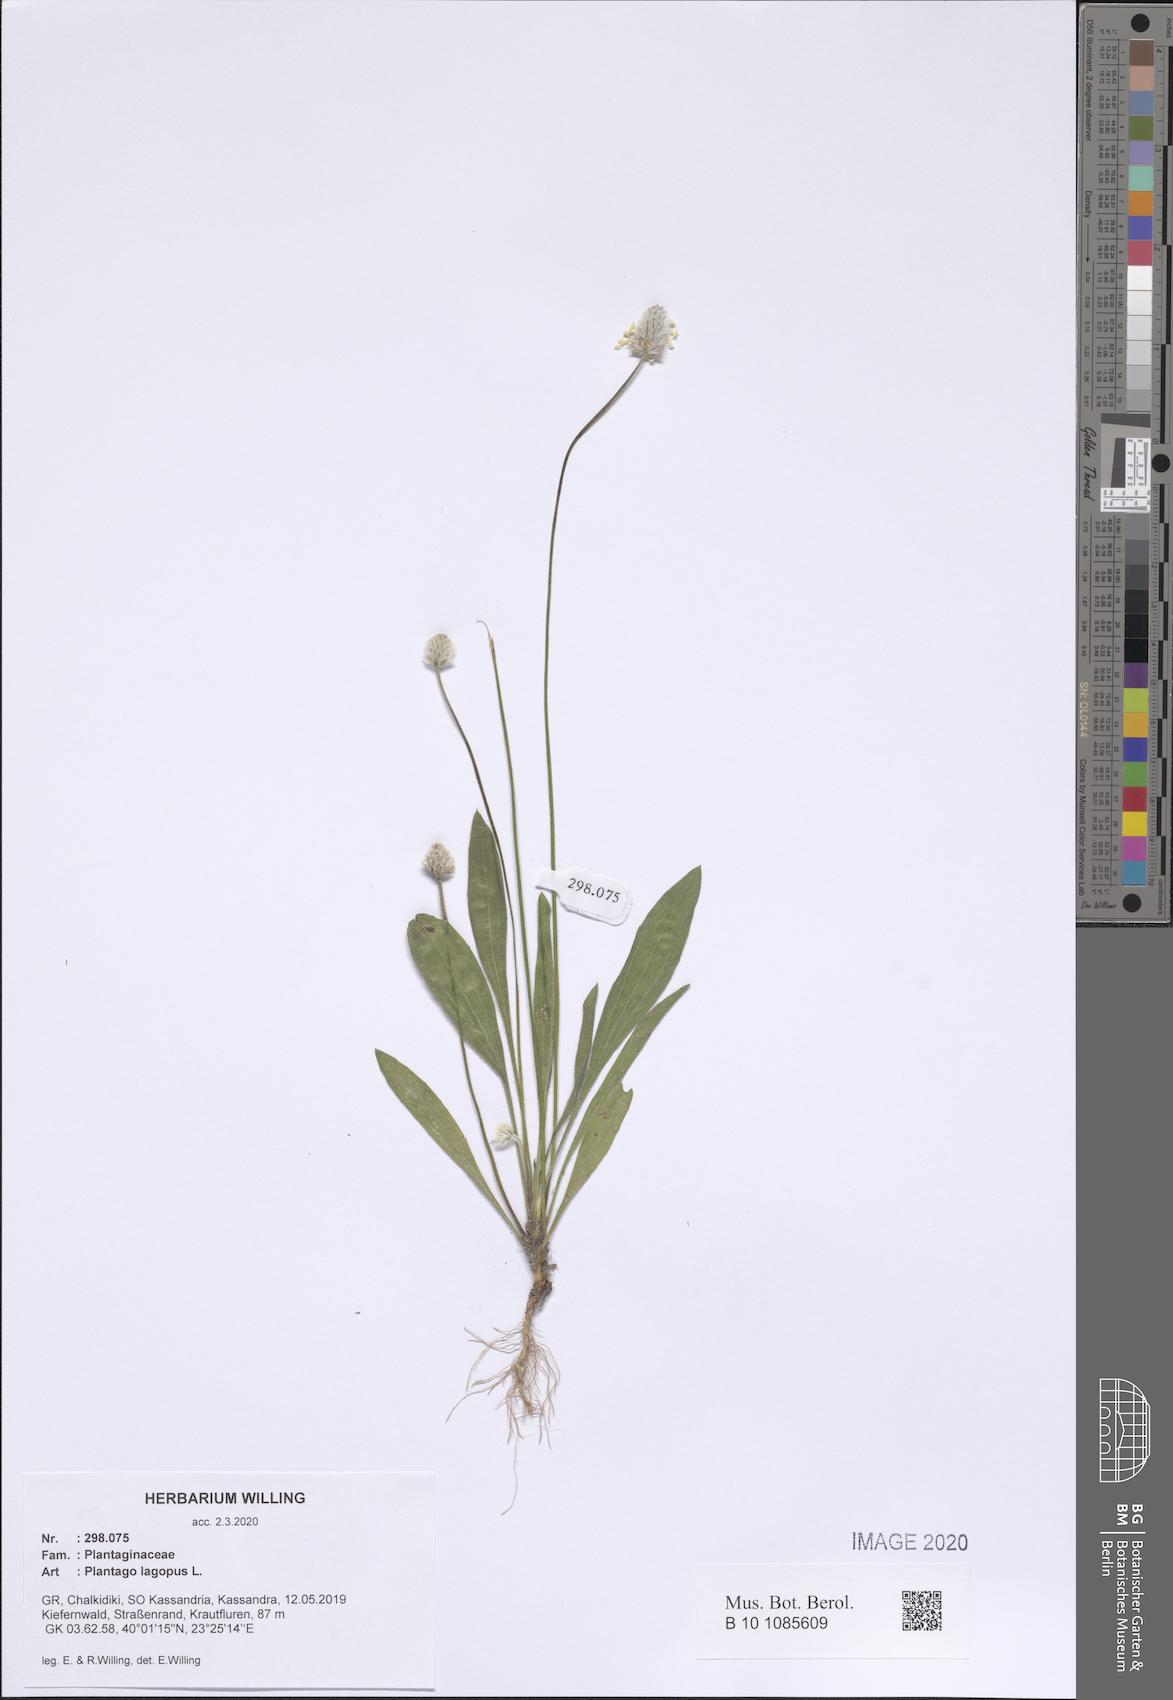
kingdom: Plantae
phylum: Tracheophyta
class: Magnoliopsida
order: Lamiales
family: Plantaginaceae
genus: Plantago
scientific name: Plantago lagopus
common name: Hare-foot plantain
